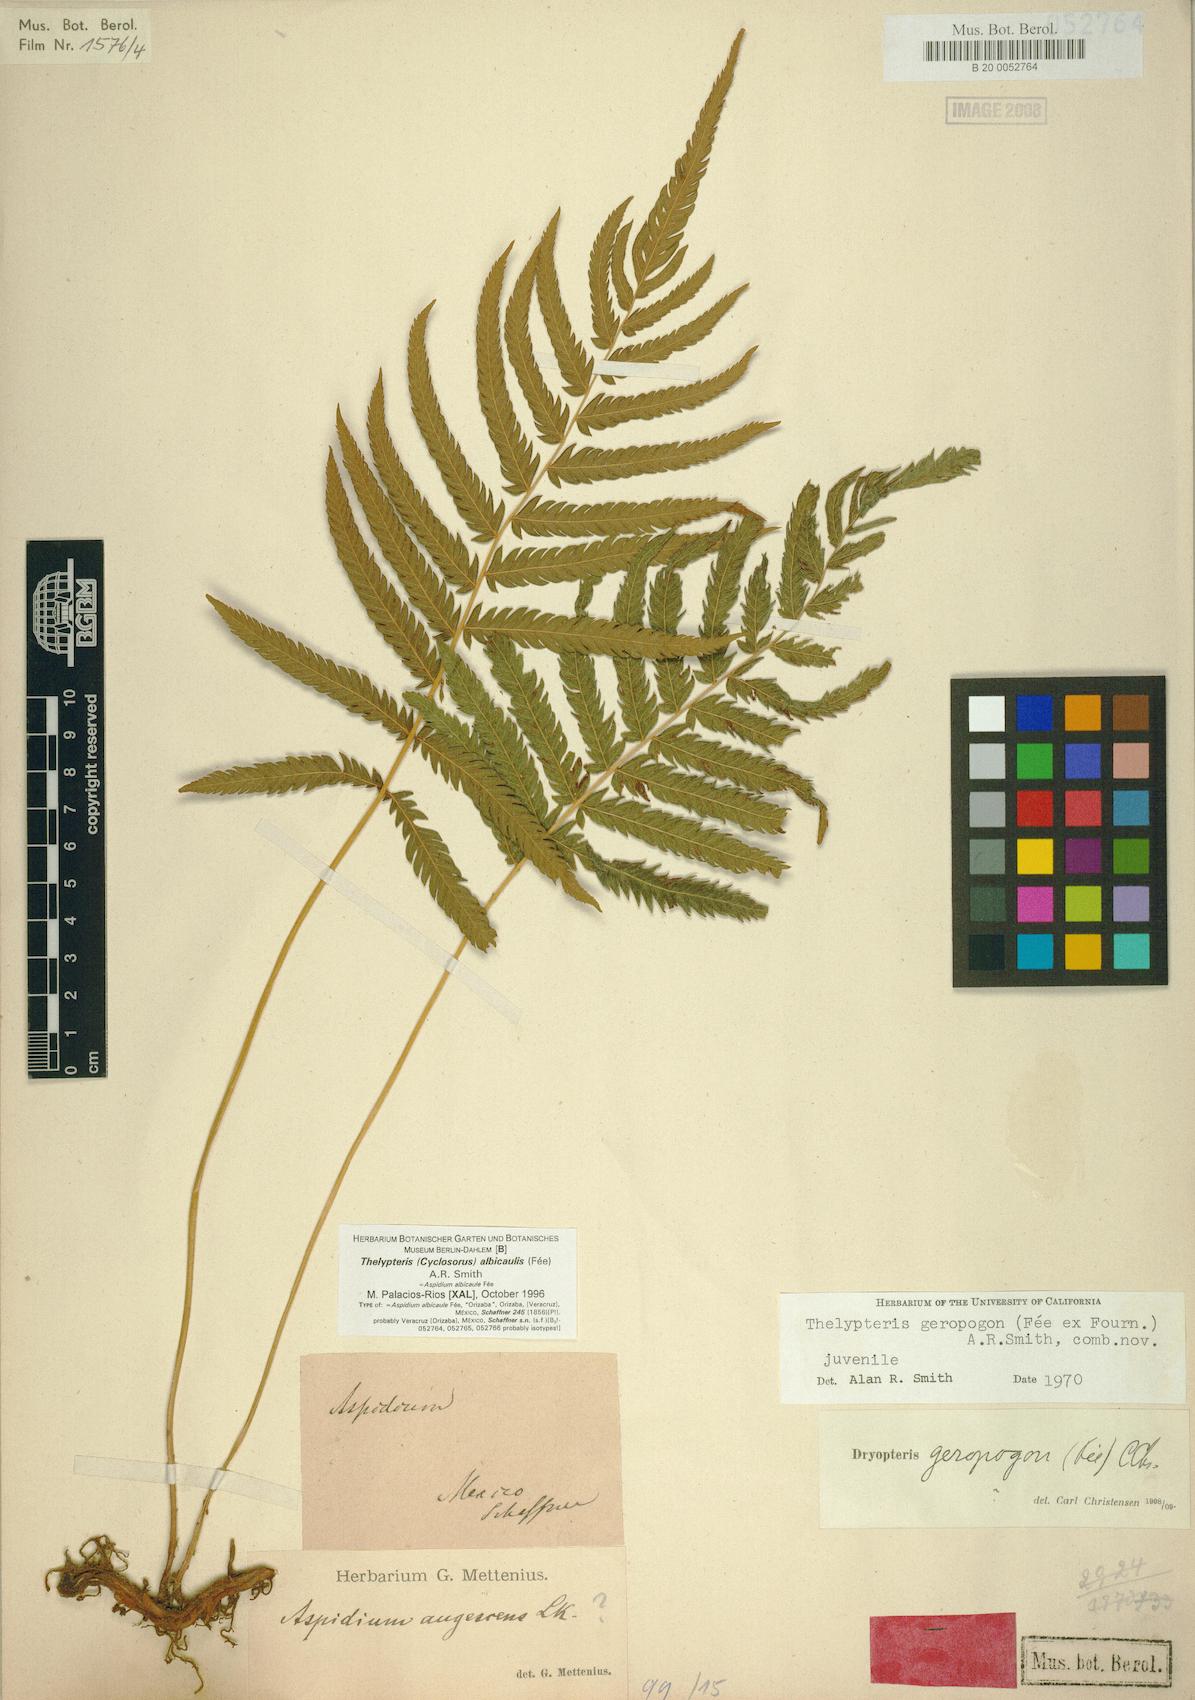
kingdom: Plantae
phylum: Tracheophyta
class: Polypodiopsida
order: Polypodiales
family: Thelypteridaceae
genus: Pelazoneuron
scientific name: Pelazoneuron albicaule
